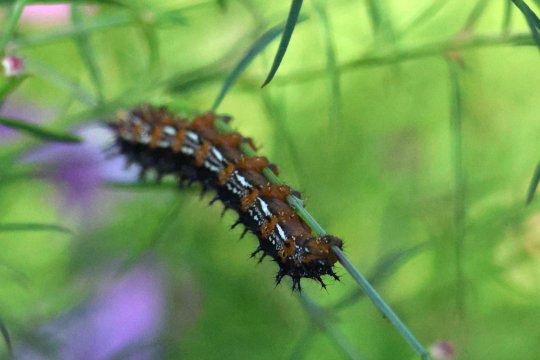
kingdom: Animalia
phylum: Arthropoda
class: Insecta
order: Lepidoptera
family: Nymphalidae
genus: Junonia
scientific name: Junonia coenia
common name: Common Buckeye
